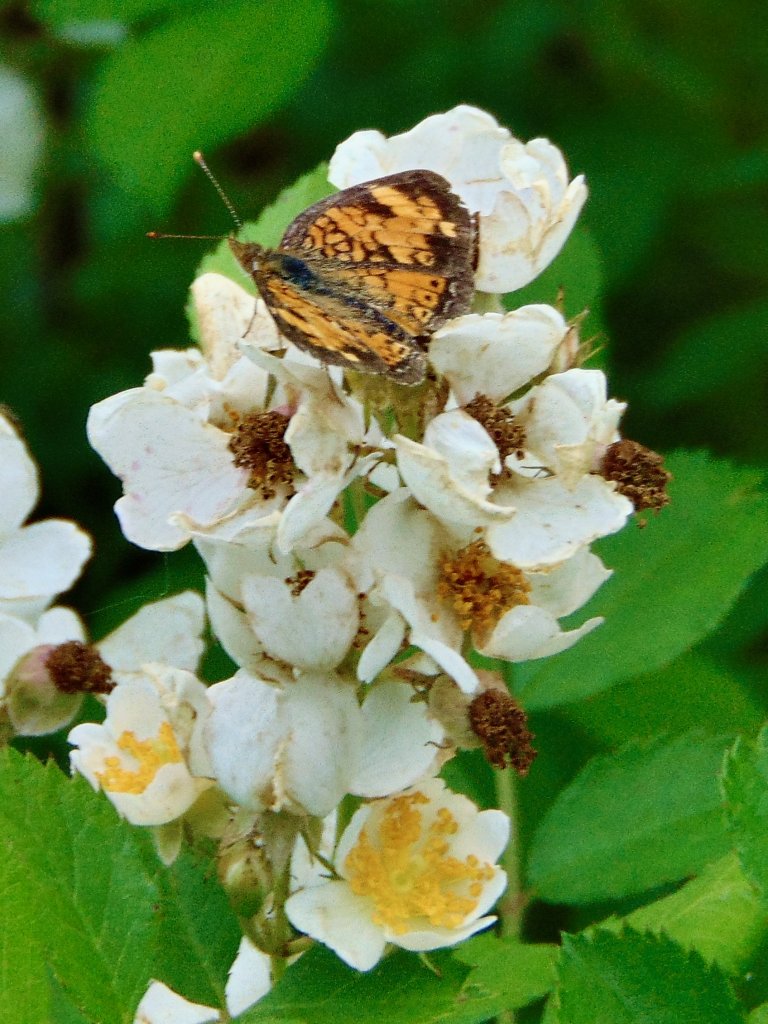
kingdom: Animalia
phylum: Arthropoda
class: Insecta
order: Lepidoptera
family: Nymphalidae
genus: Phyciodes
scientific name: Phyciodes tharos
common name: Pearl Crescent
